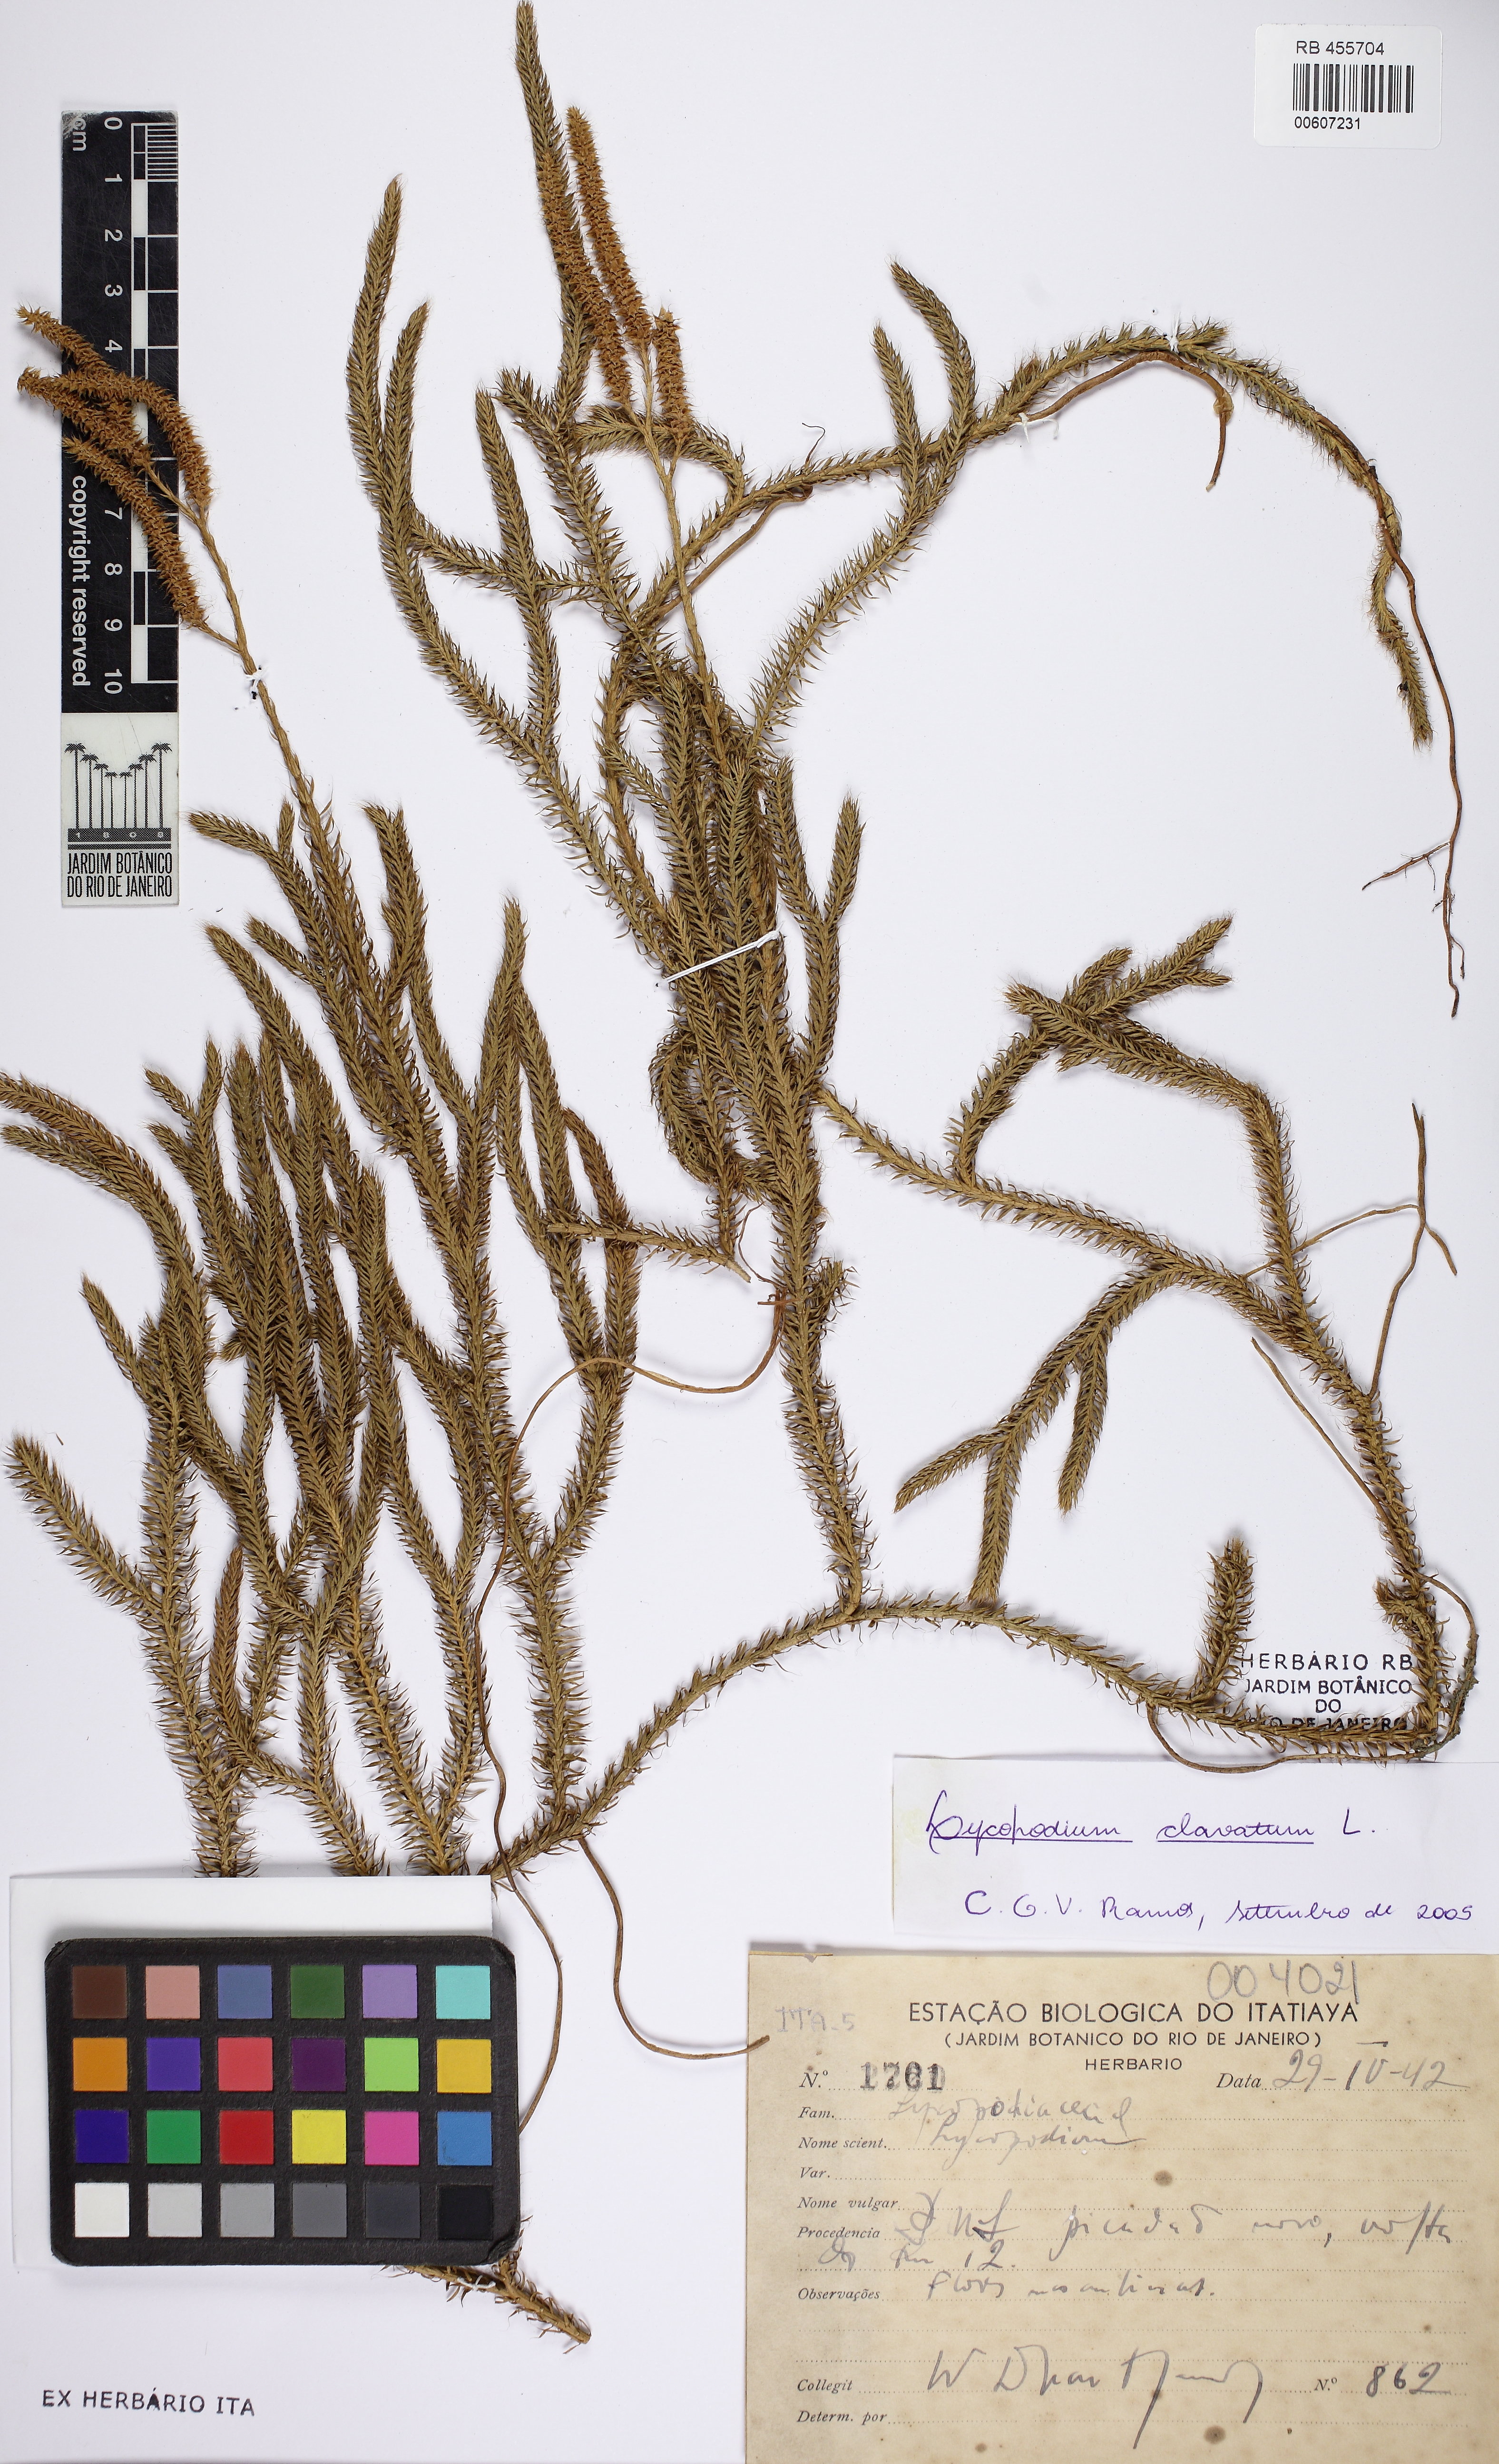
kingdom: Plantae
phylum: Tracheophyta
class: Lycopodiopsida
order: Lycopodiales
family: Lycopodiaceae
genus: Lycopodium
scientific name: Lycopodium clavatum
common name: Stag's-horn clubmoss
